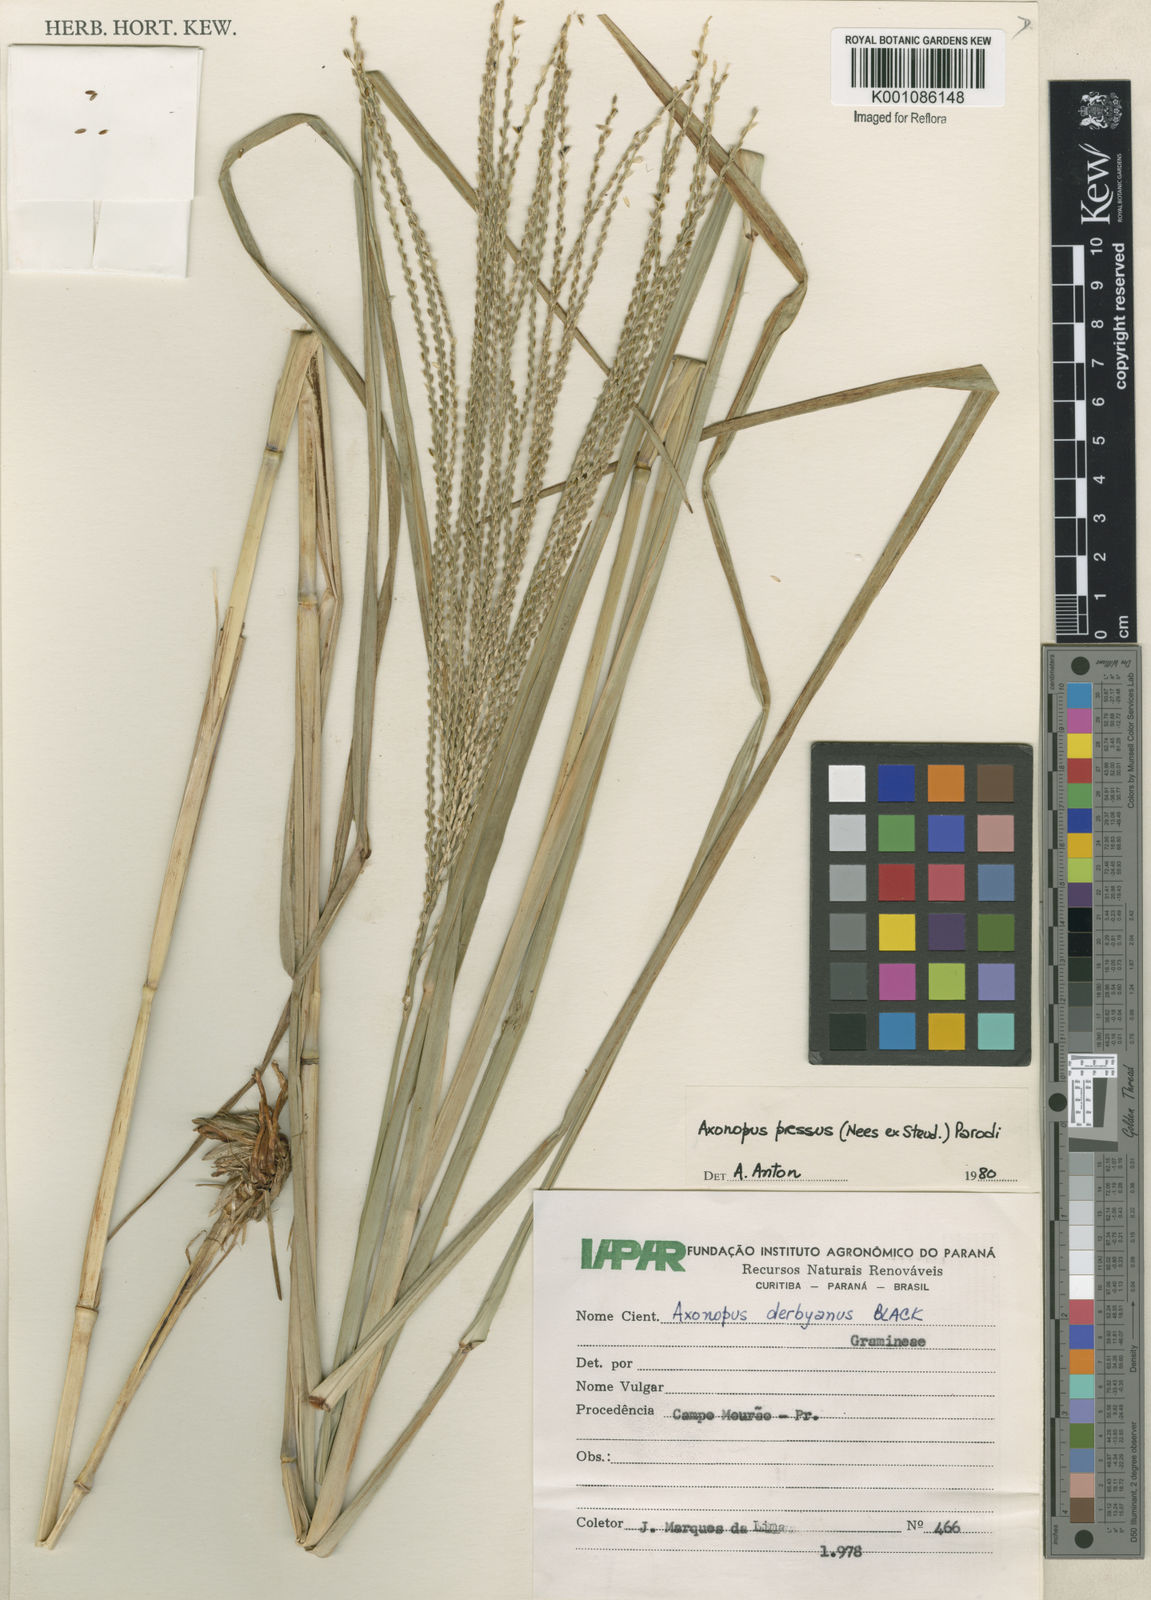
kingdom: Plantae
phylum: Tracheophyta
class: Liliopsida
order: Poales
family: Poaceae
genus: Axonopus
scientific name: Axonopus pressus
